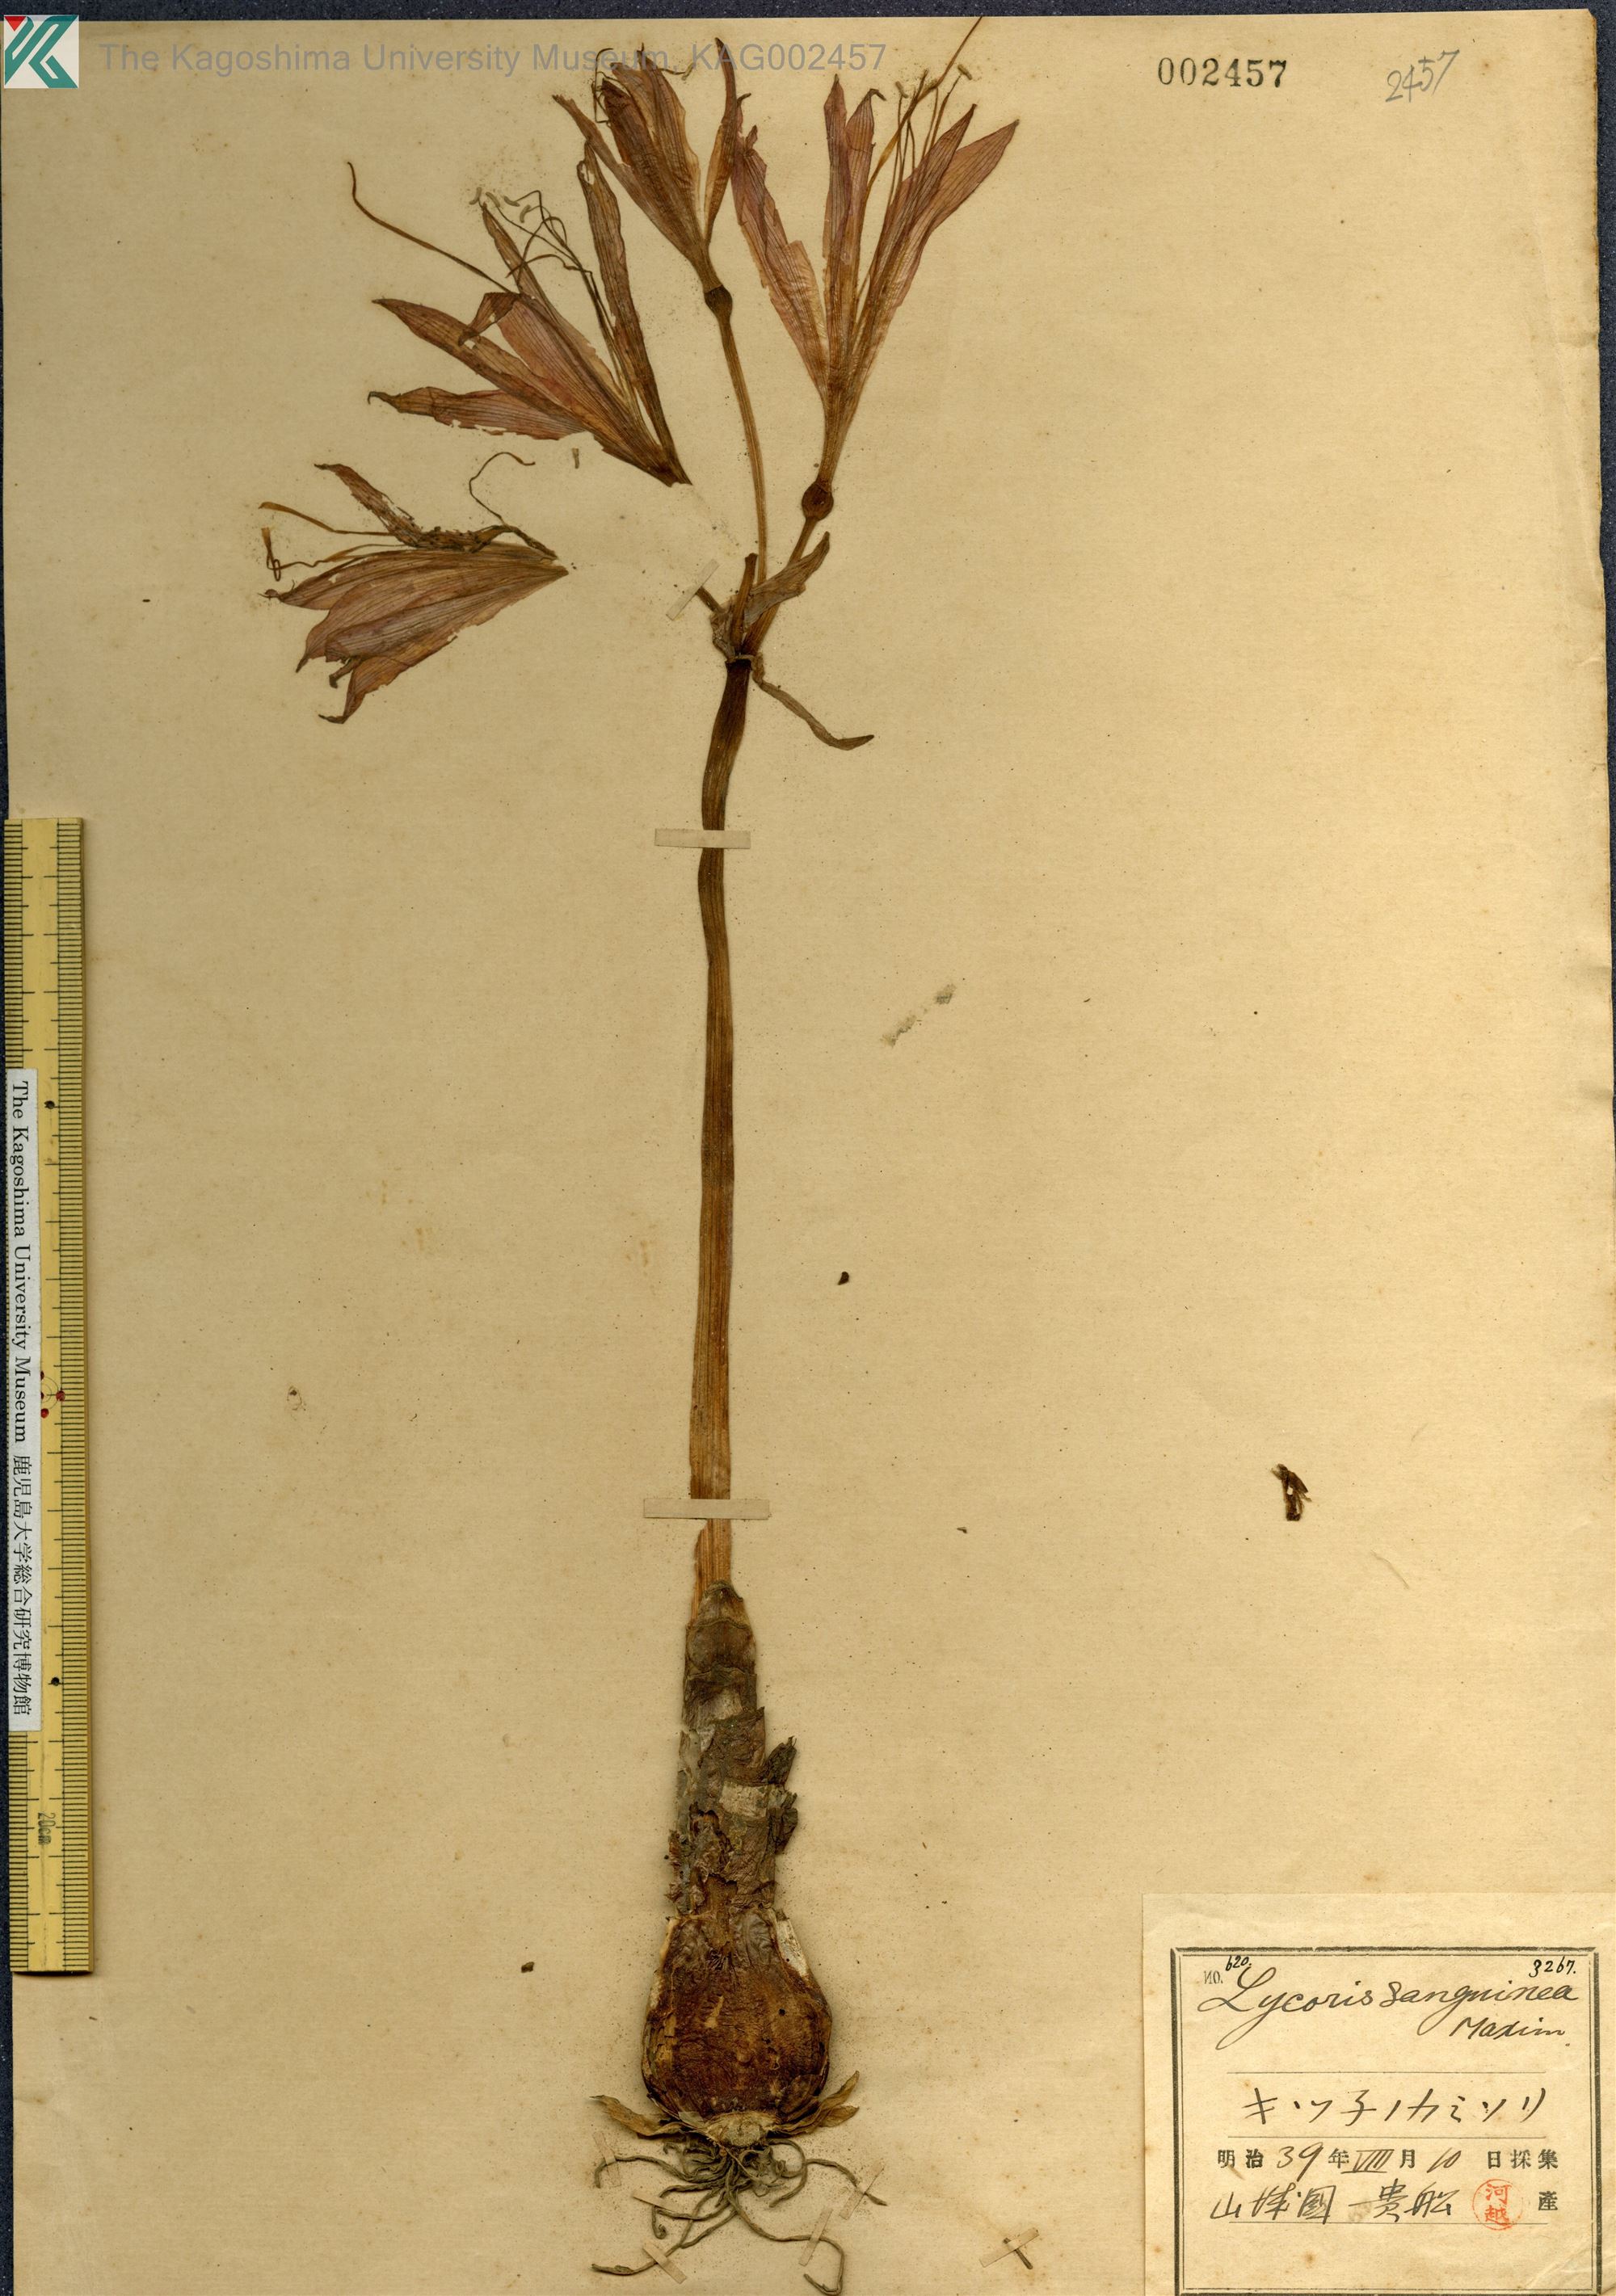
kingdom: Plantae
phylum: Tracheophyta
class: Liliopsida
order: Asparagales
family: Amaryllidaceae
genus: Lycoris
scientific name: Lycoris sanguinea
